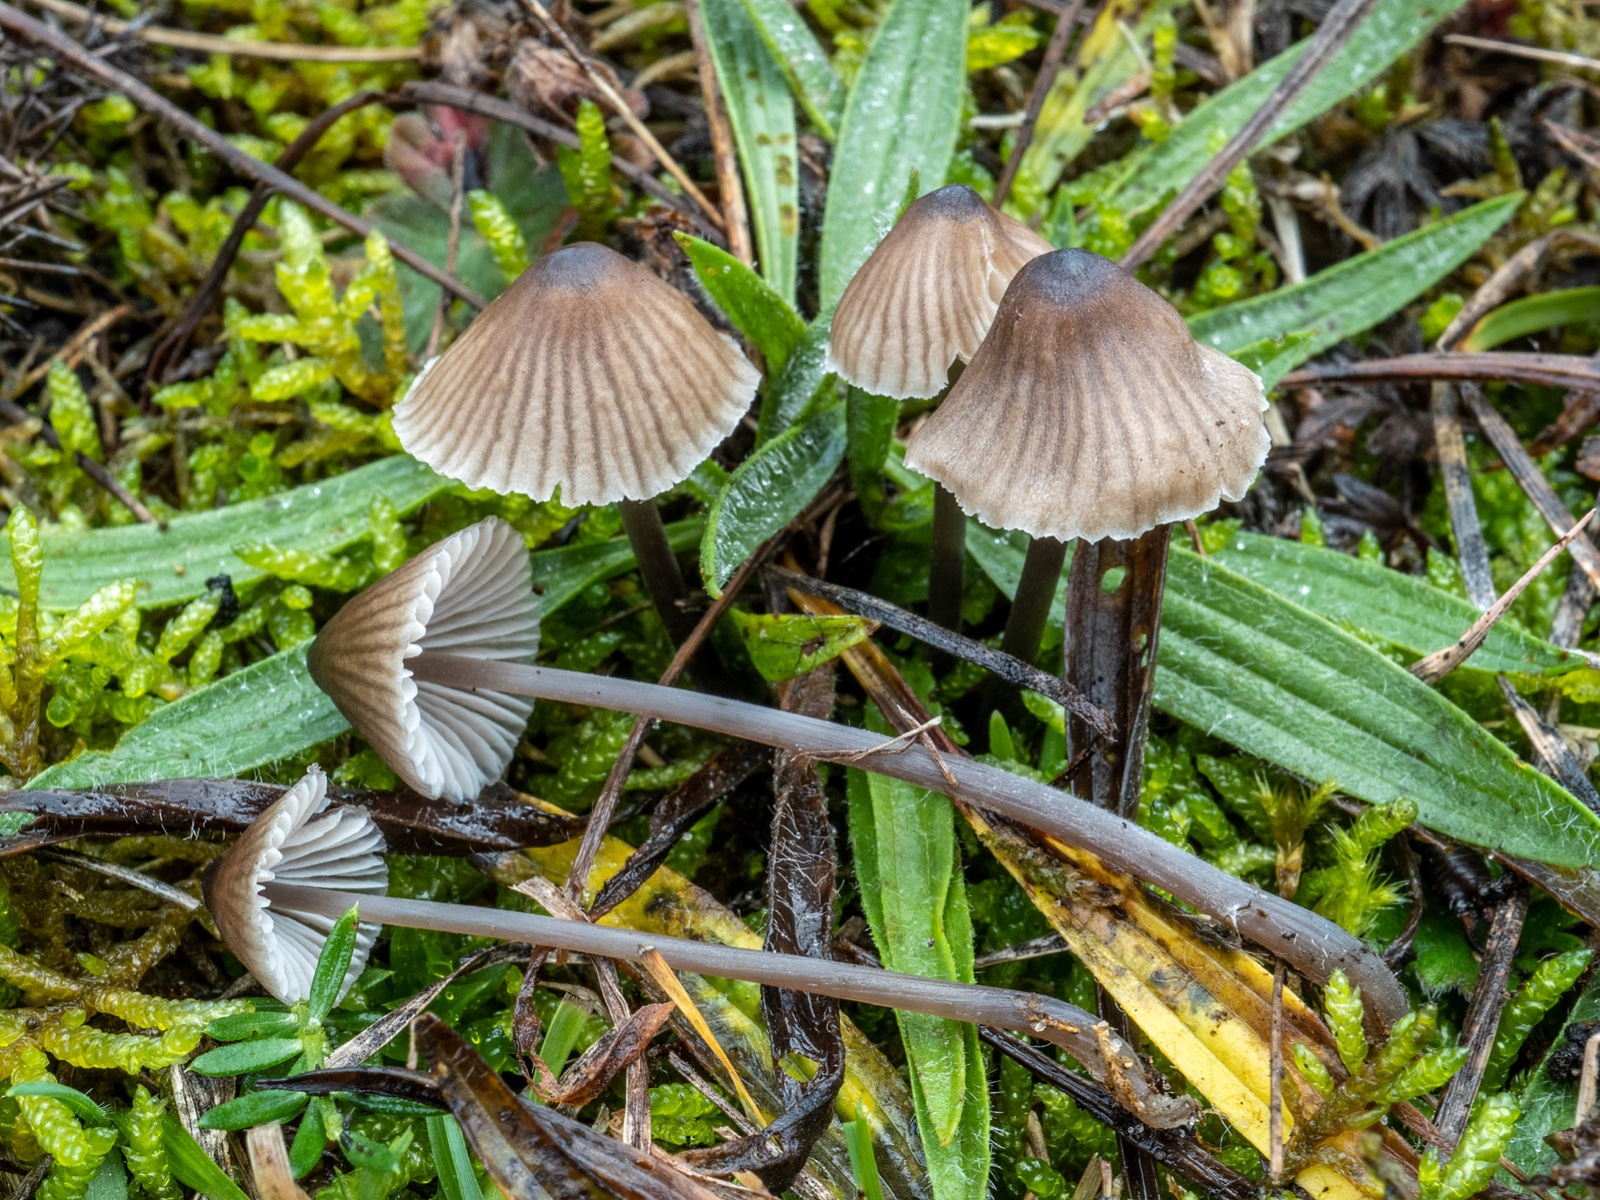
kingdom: Fungi
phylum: Basidiomycota
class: Agaricomycetes
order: Agaricales
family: Mycenaceae
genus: Mycena
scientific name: Mycena
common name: huesvamp
